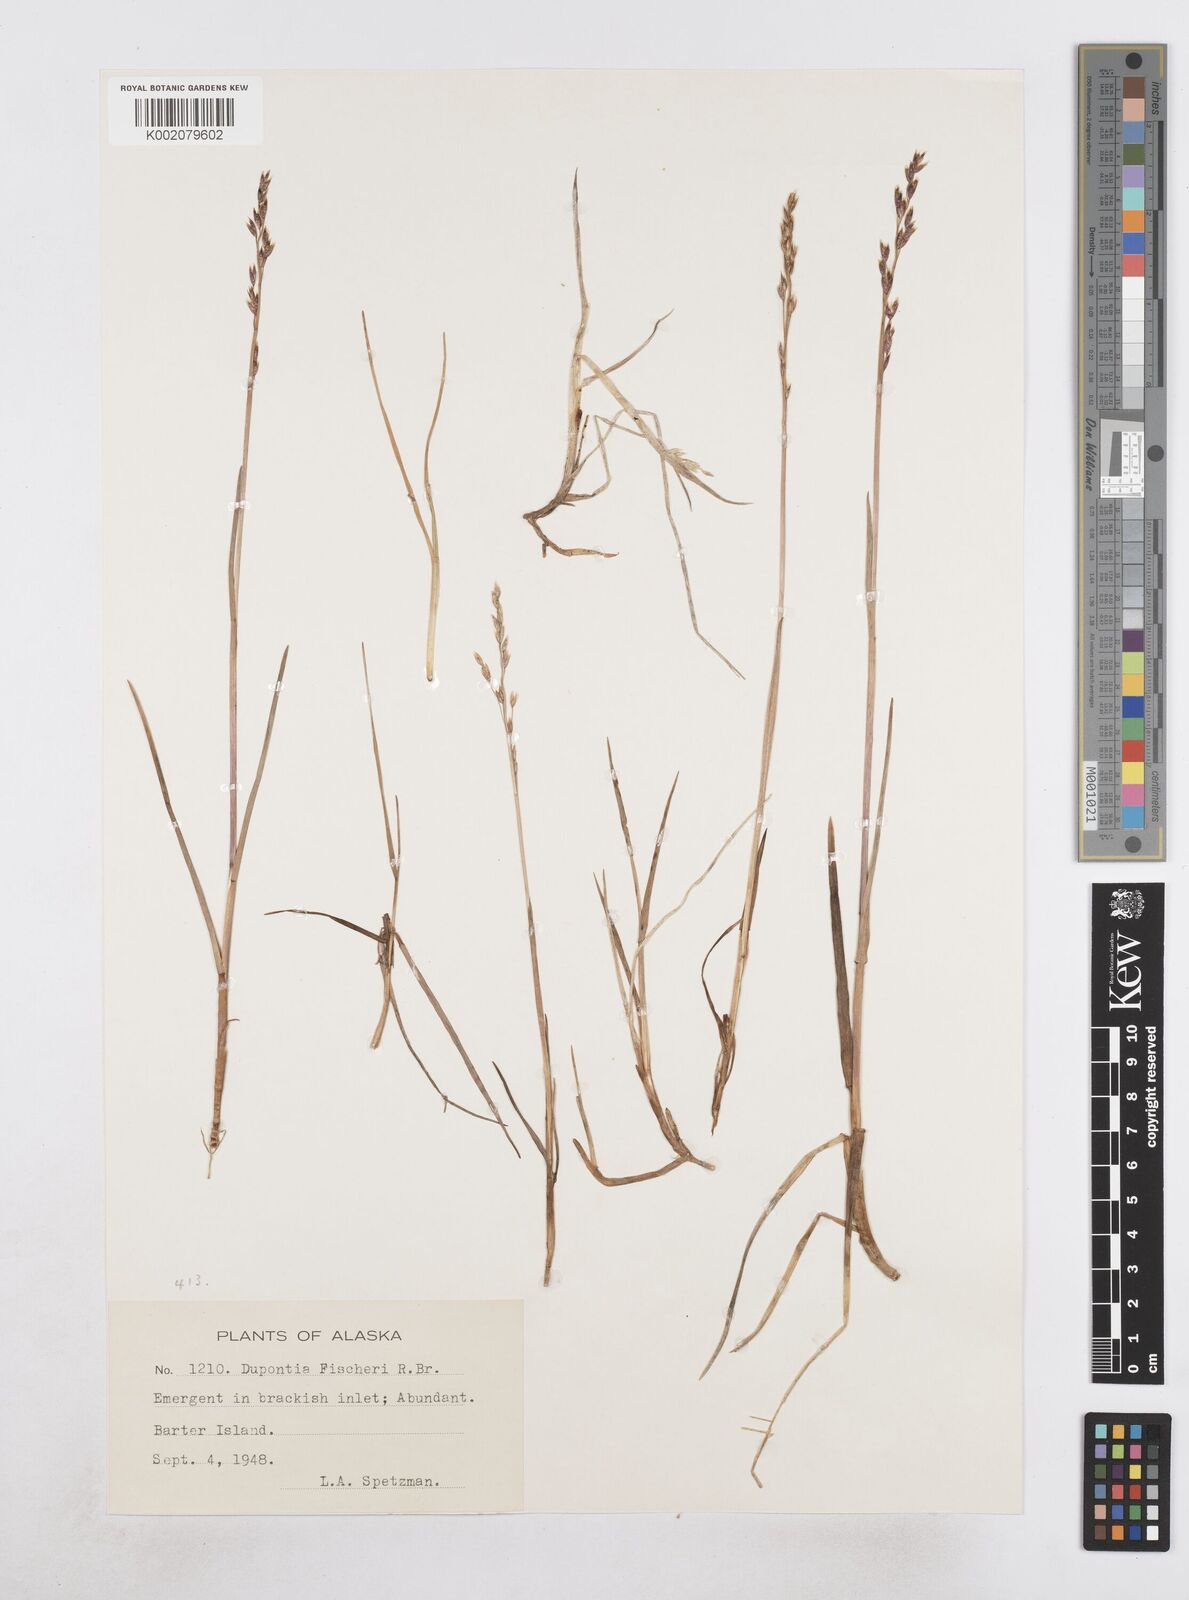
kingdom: Plantae
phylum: Tracheophyta
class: Liliopsida
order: Poales
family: Poaceae
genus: Dupontia
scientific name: Dupontia fisheri
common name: Tundra grass
